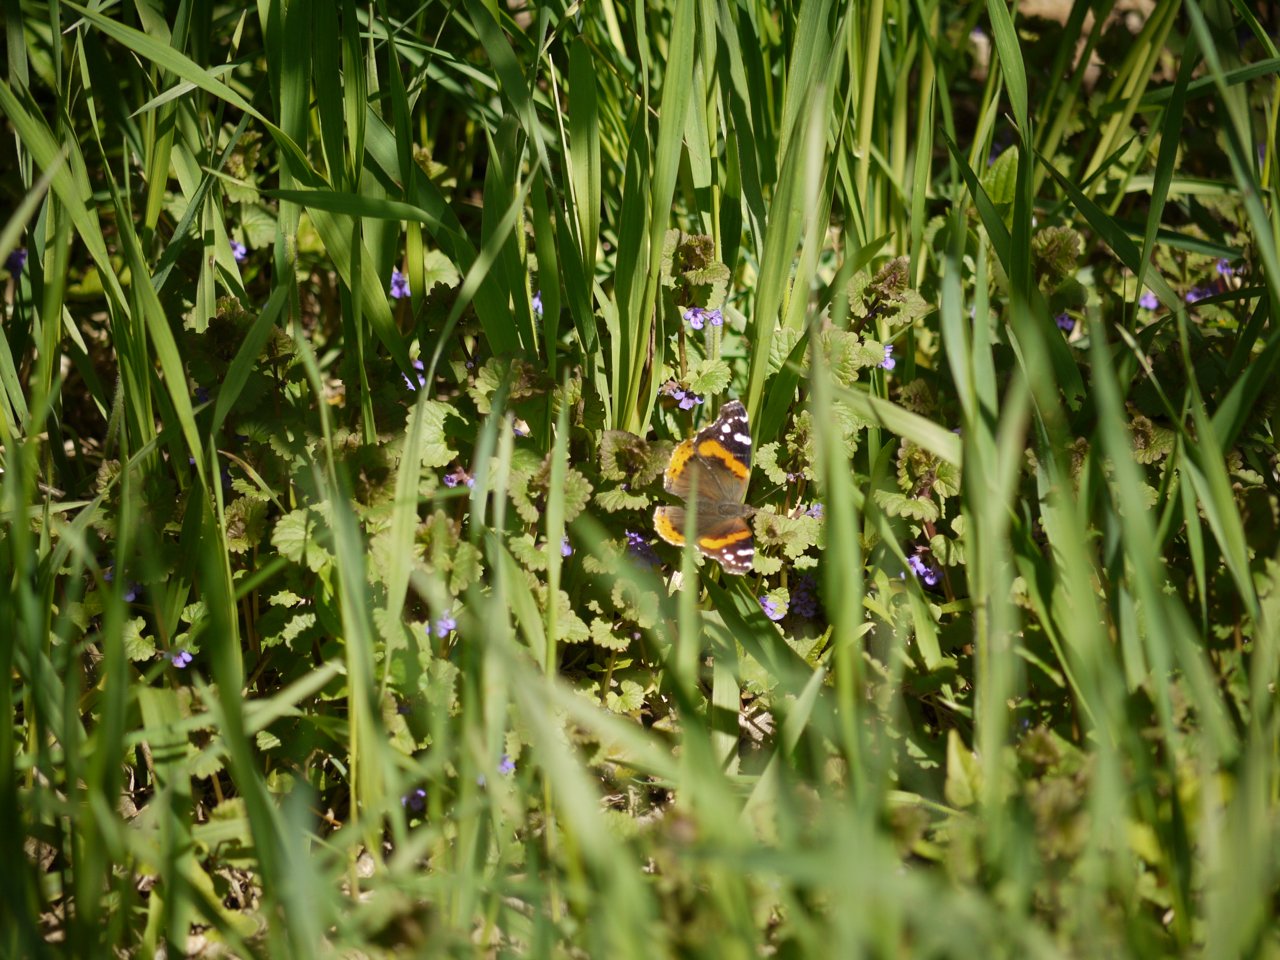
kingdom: Animalia
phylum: Arthropoda
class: Insecta
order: Lepidoptera
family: Nymphalidae
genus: Vanessa
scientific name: Vanessa atalanta
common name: Red Admiral
